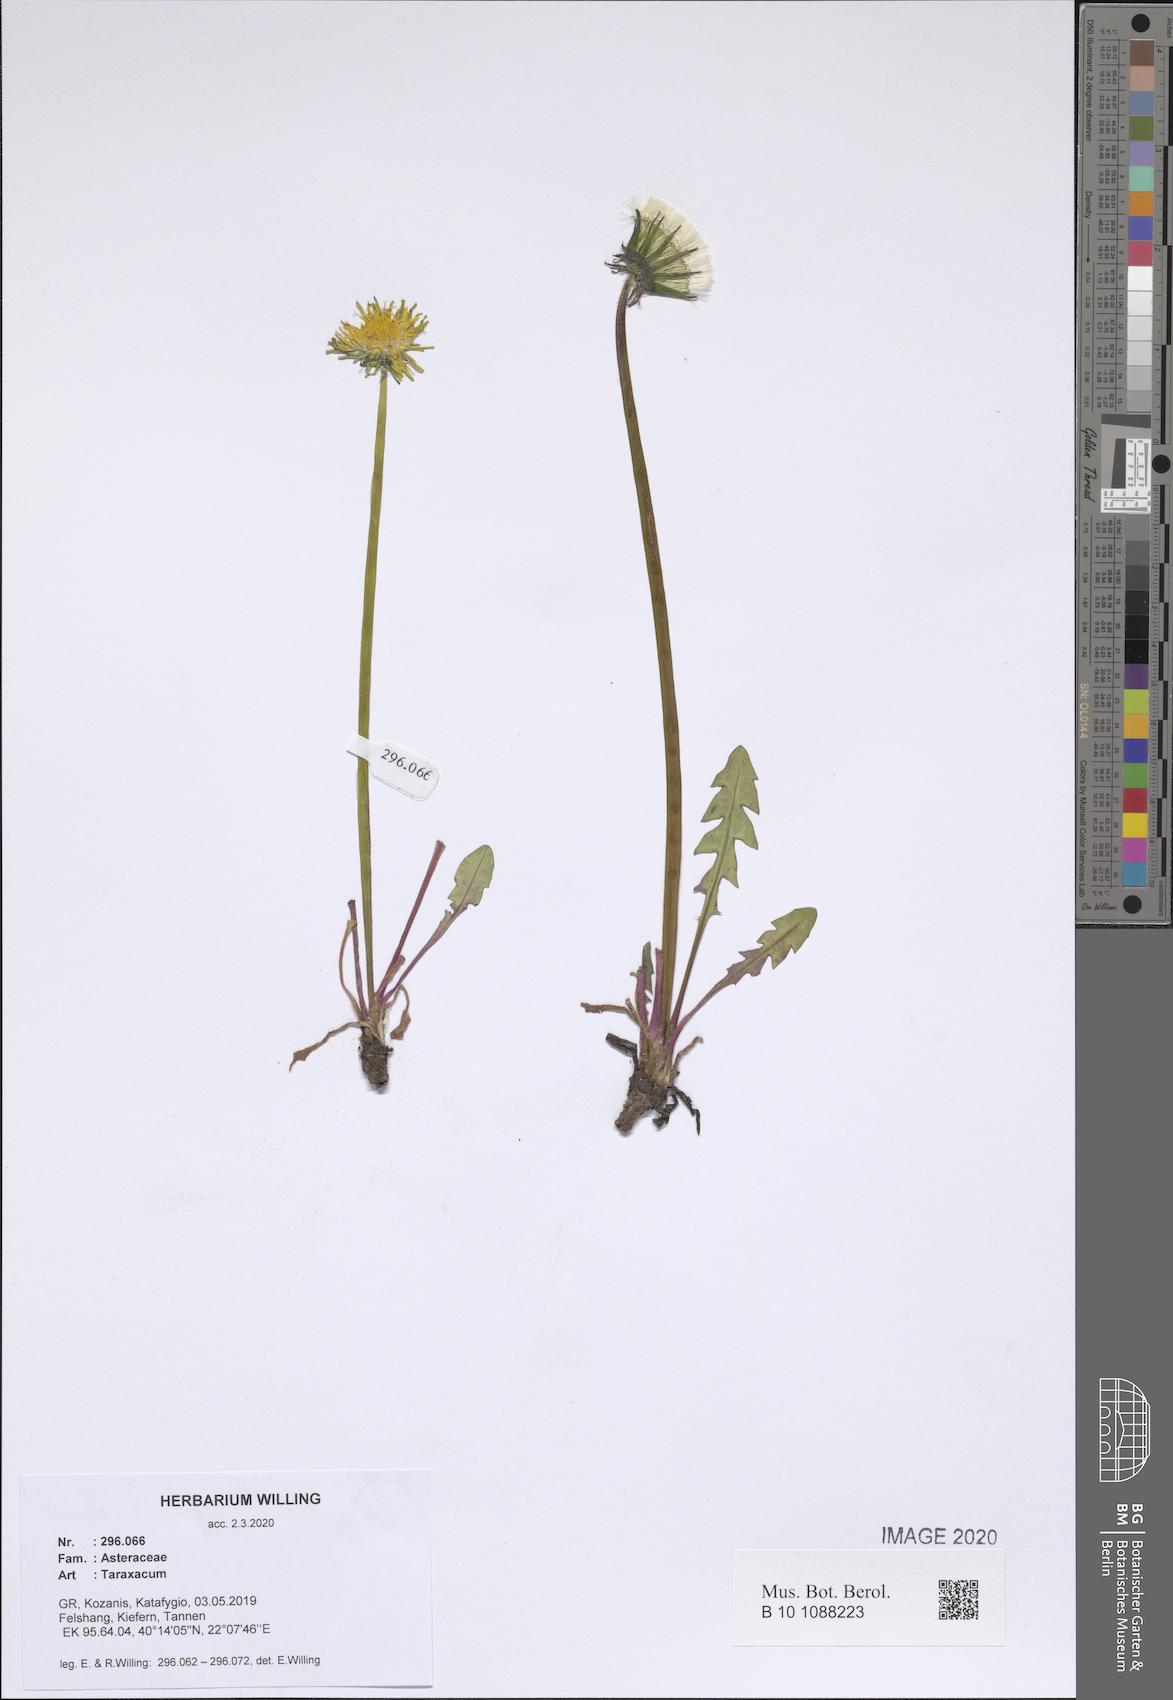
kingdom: Plantae
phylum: Tracheophyta
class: Magnoliopsida
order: Asterales
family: Asteraceae
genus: Taraxacum
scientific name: Taraxacum
